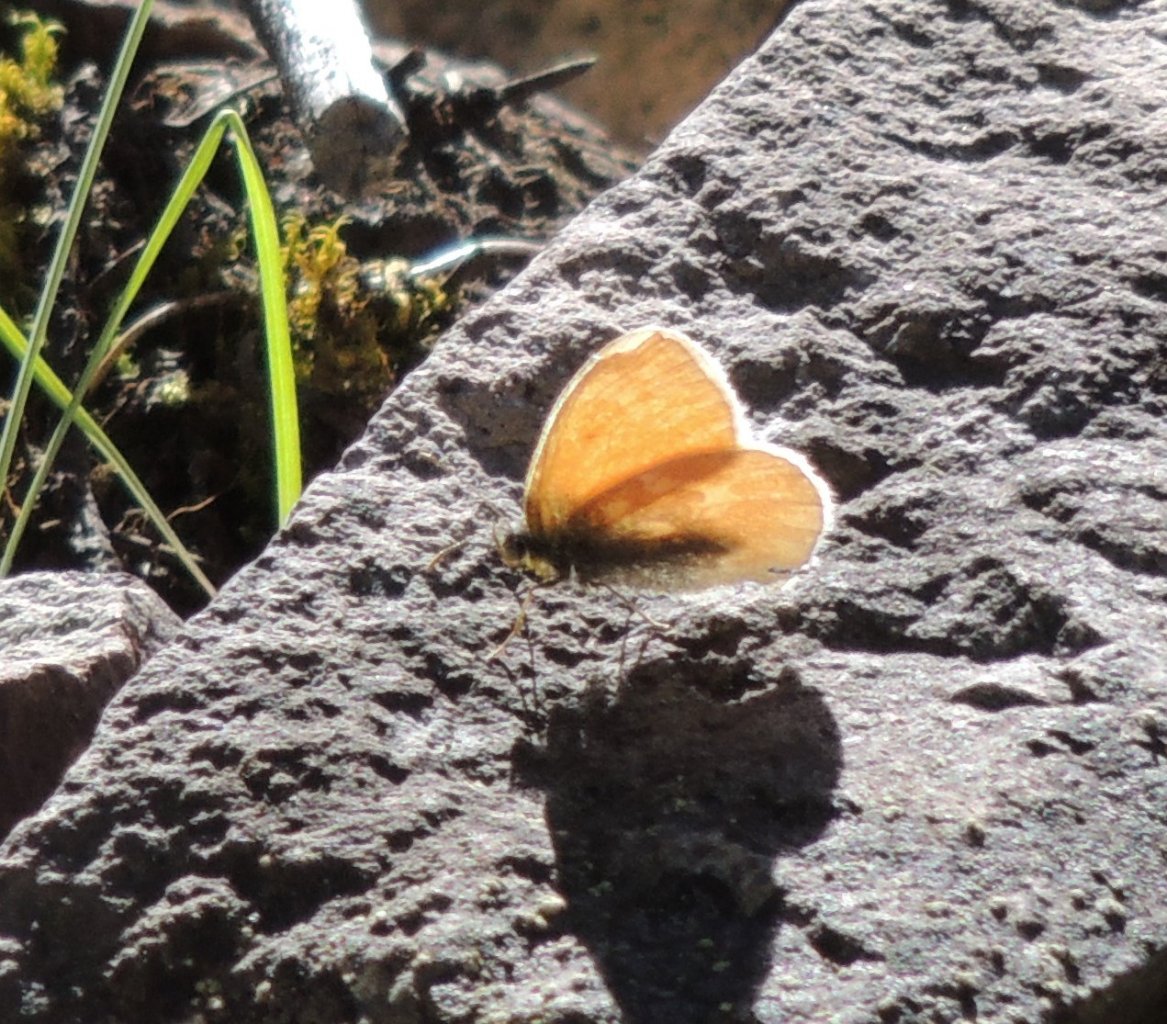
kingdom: Animalia
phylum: Arthropoda
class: Insecta
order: Lepidoptera
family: Nymphalidae
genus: Coenonympha
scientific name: Coenonympha tullia
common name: Large Heath
